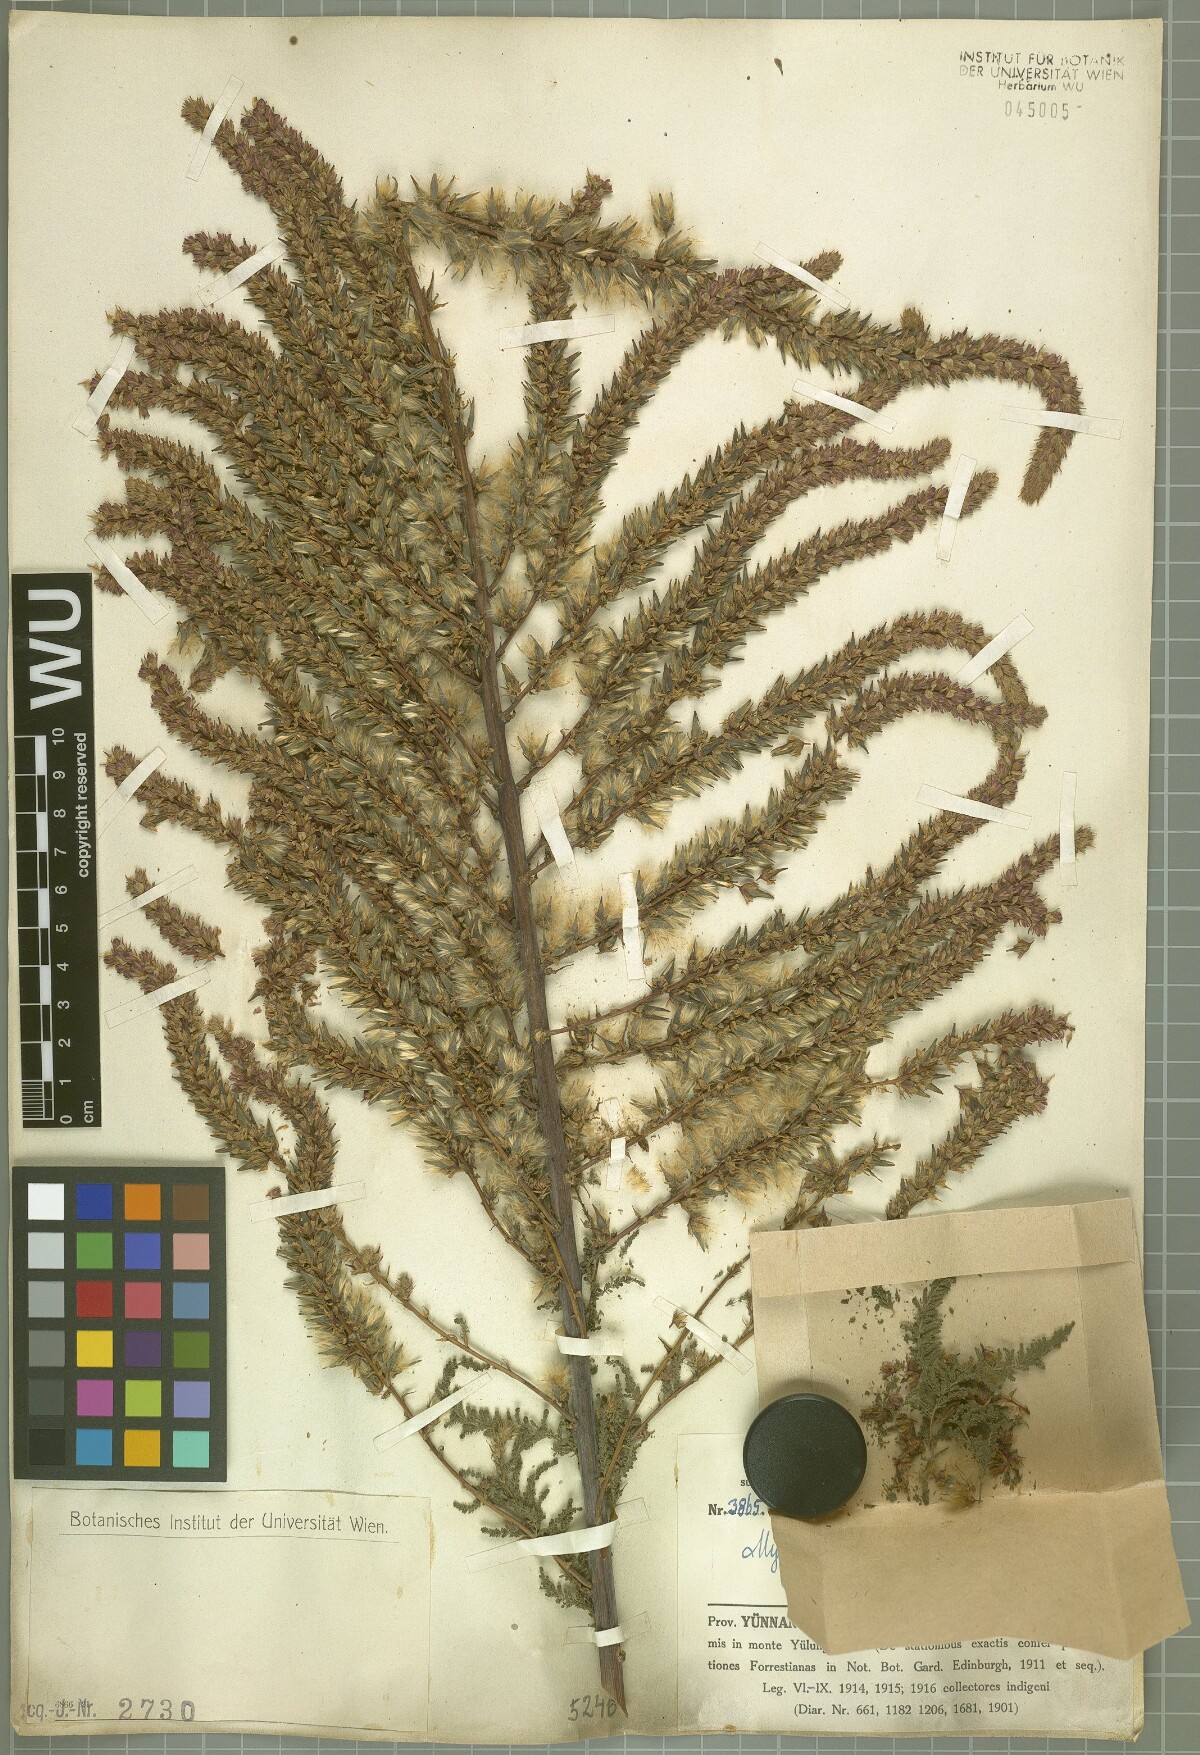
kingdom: Plantae
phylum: Tracheophyta
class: Magnoliopsida
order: Caryophyllales
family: Tamaricaceae
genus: Myricaria
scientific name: Myricaria germanica
